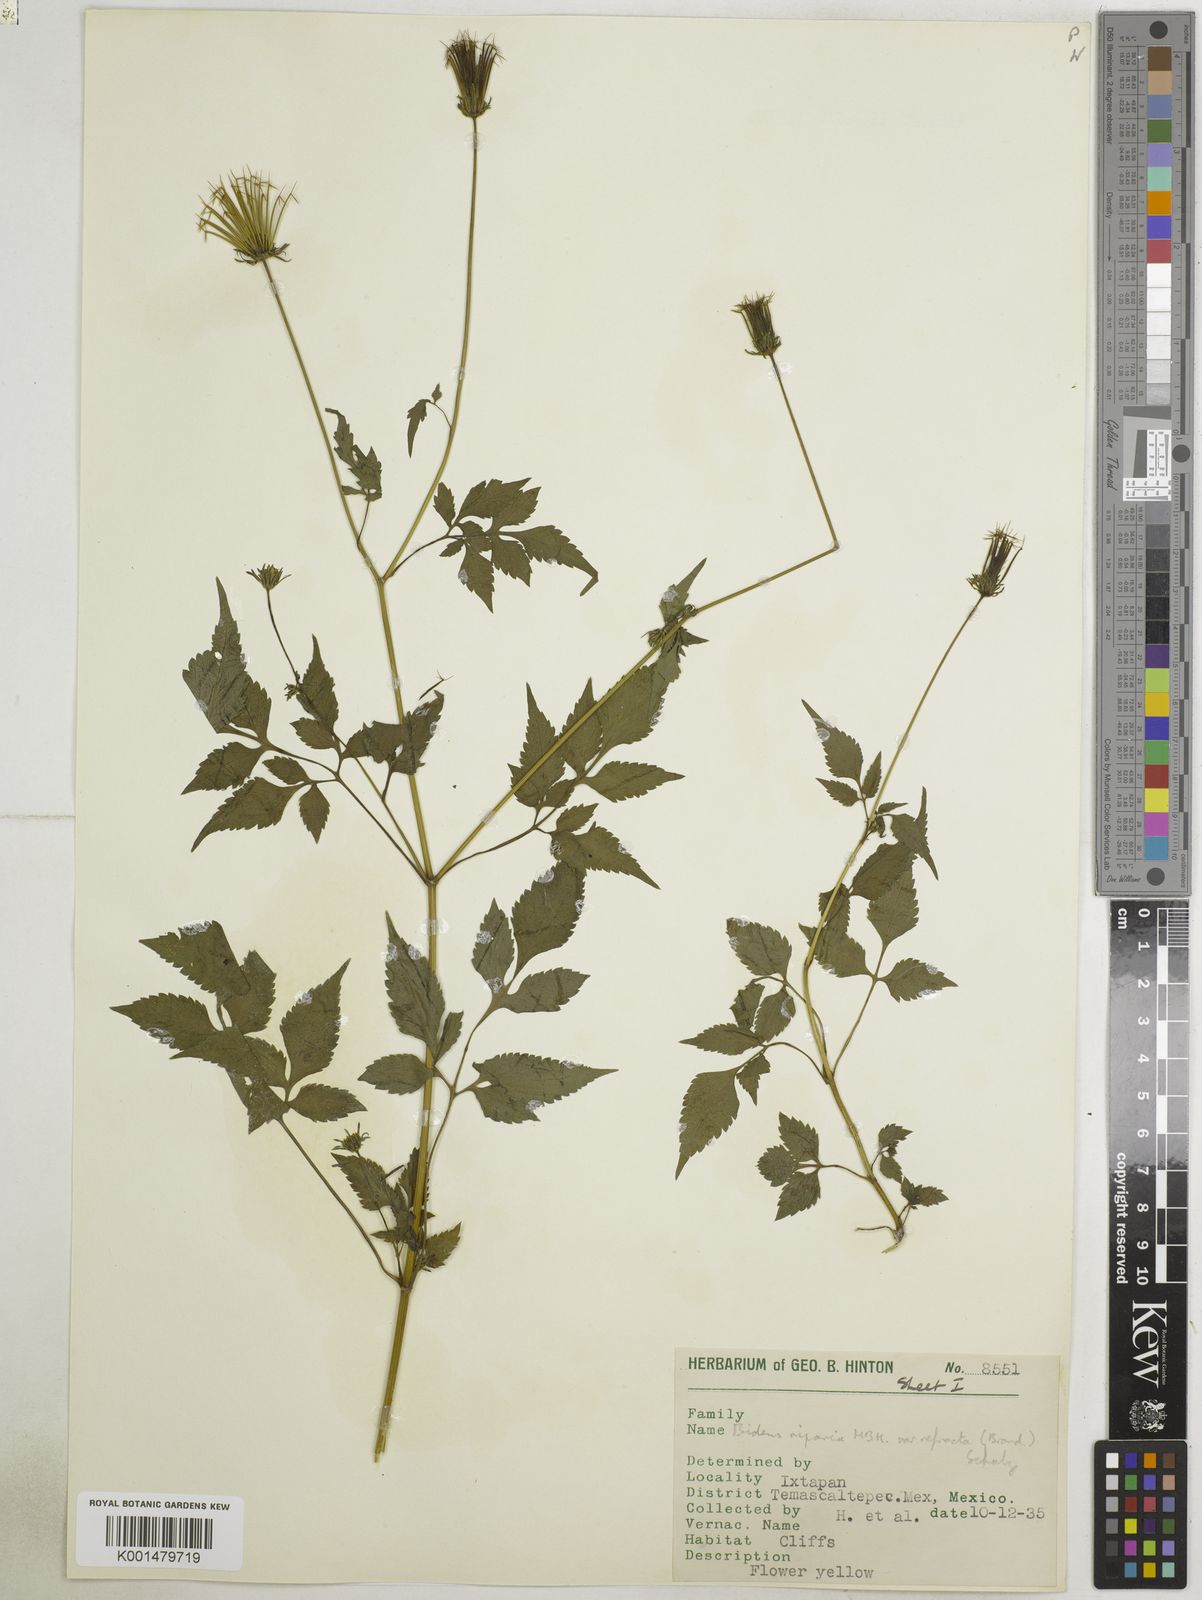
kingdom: Plantae
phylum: Tracheophyta
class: Magnoliopsida
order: Asterales
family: Asteraceae
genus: Bidens
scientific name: Bidens riparia
